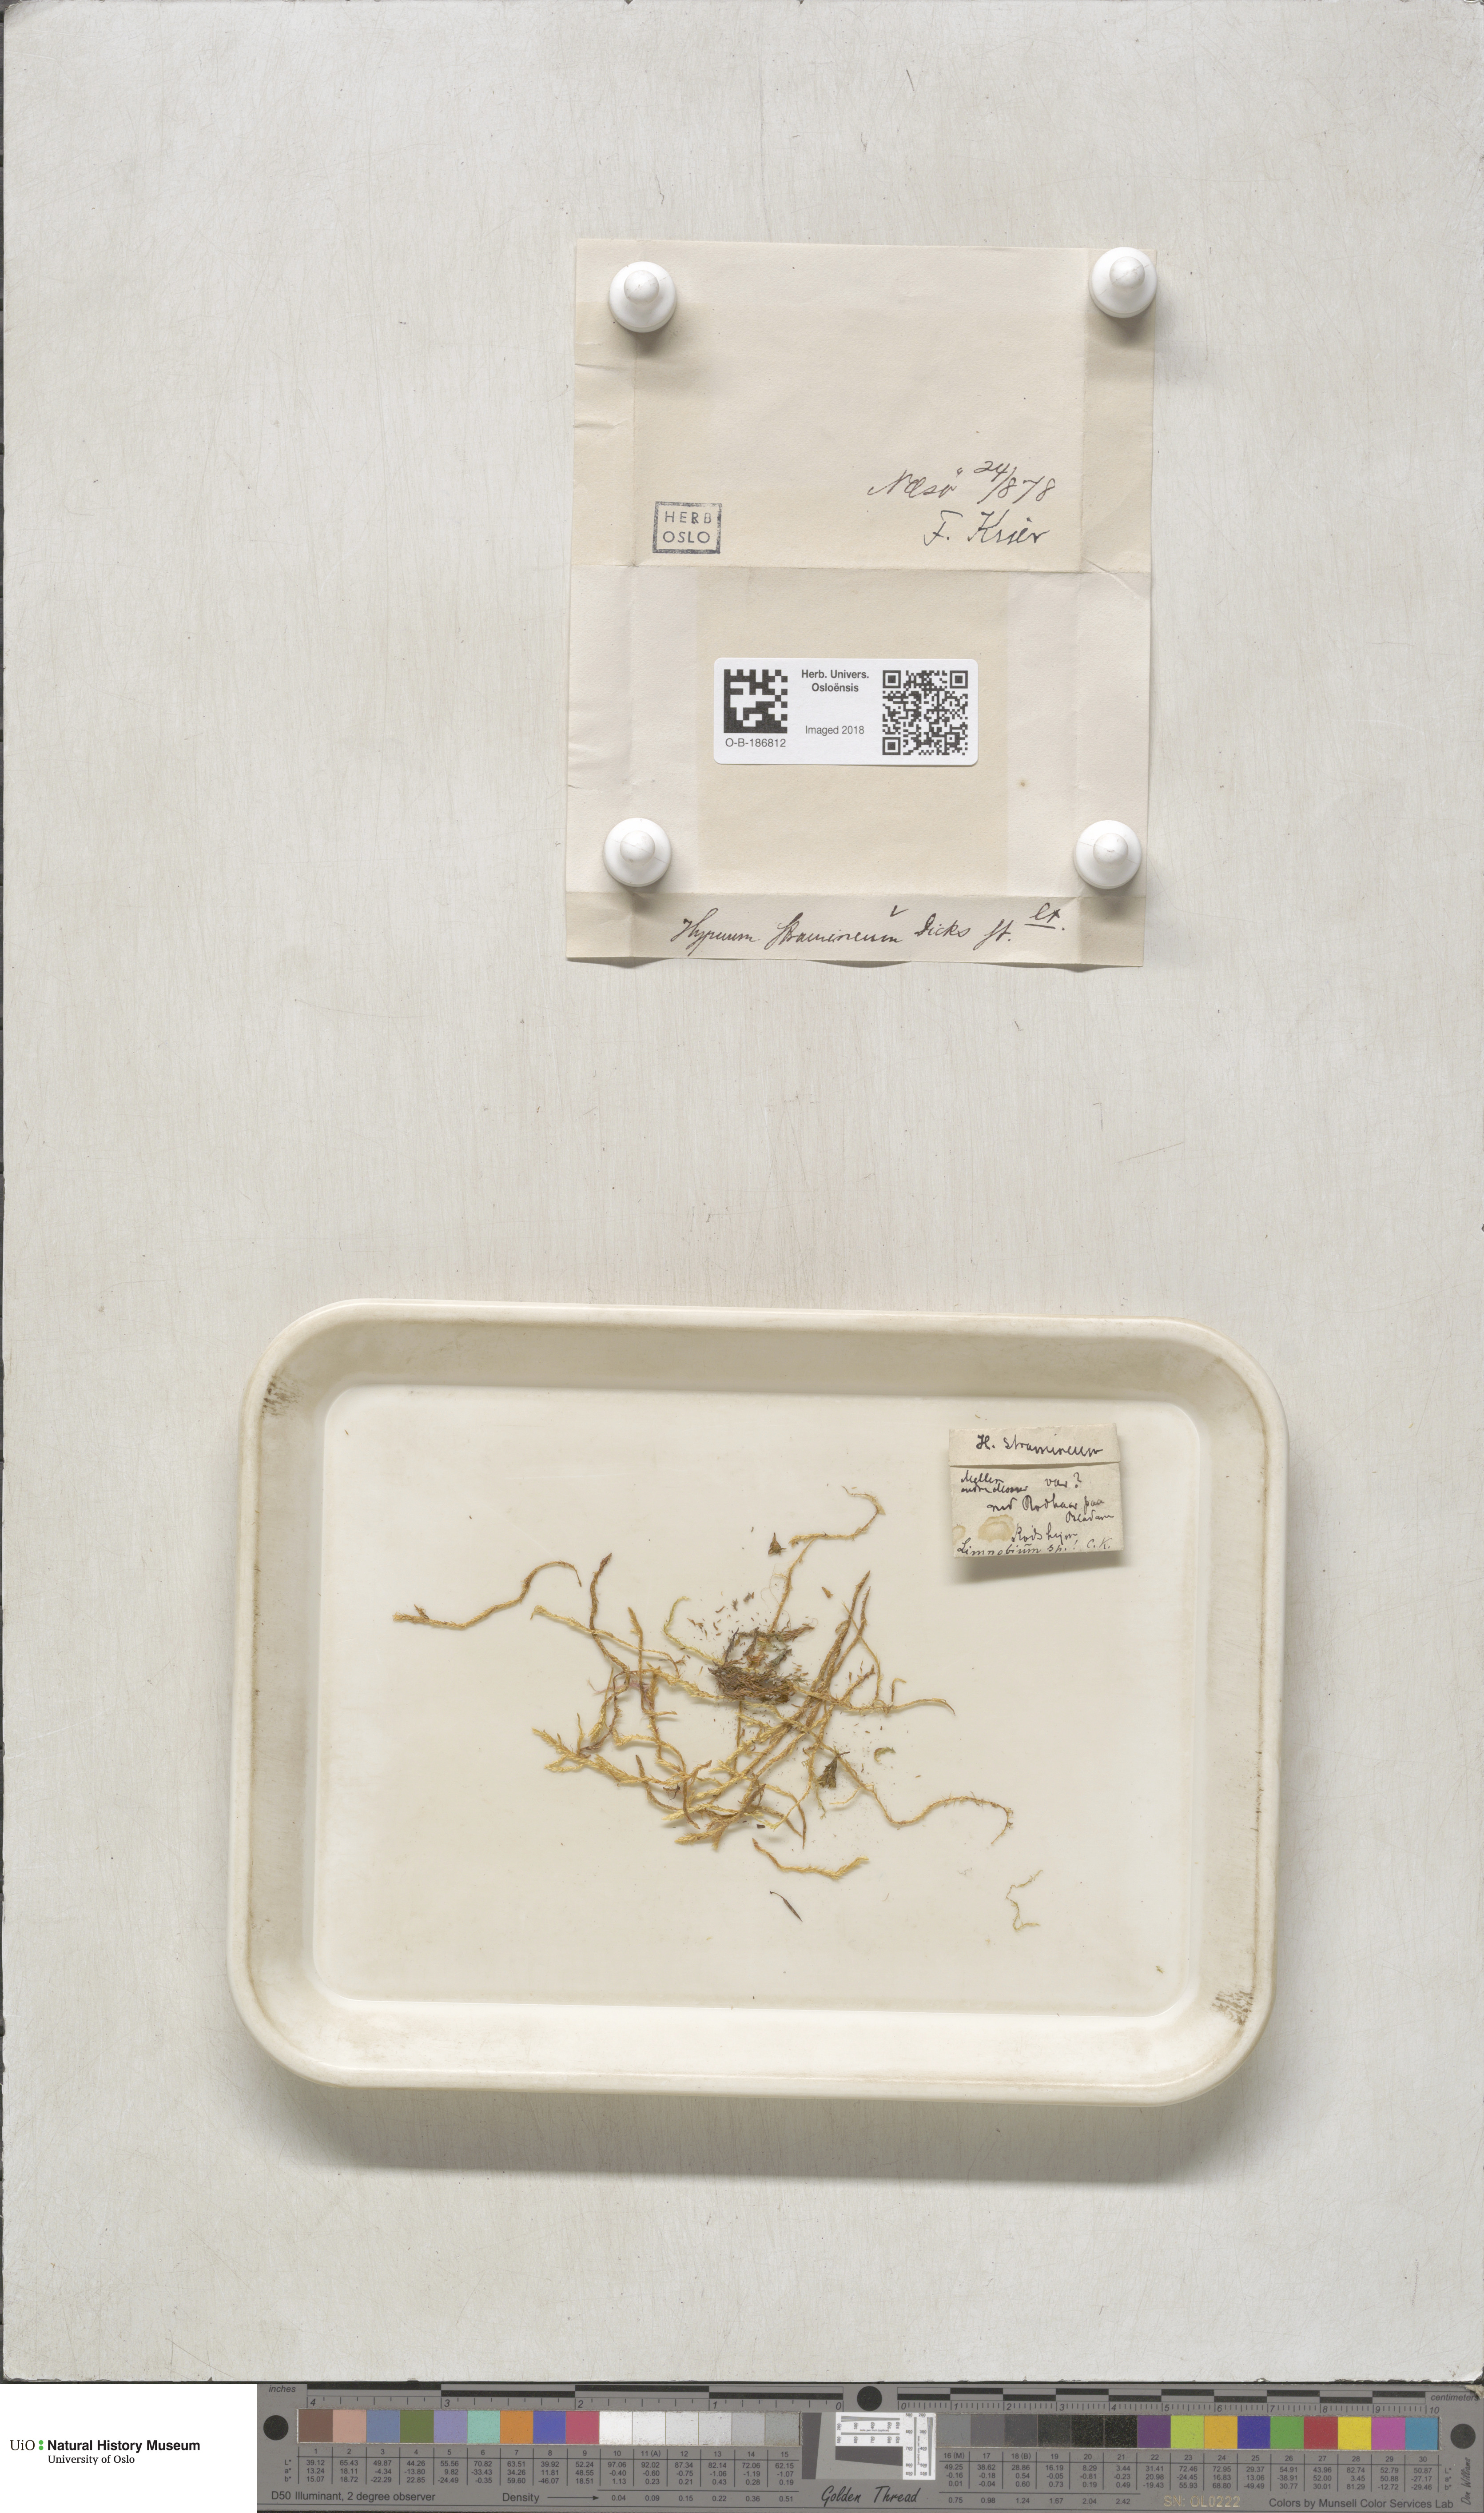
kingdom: Plantae
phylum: Bryophyta
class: Bryopsida
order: Hypnales
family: Calliergonaceae
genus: Straminergon
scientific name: Straminergon stramineum
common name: Straw moss
